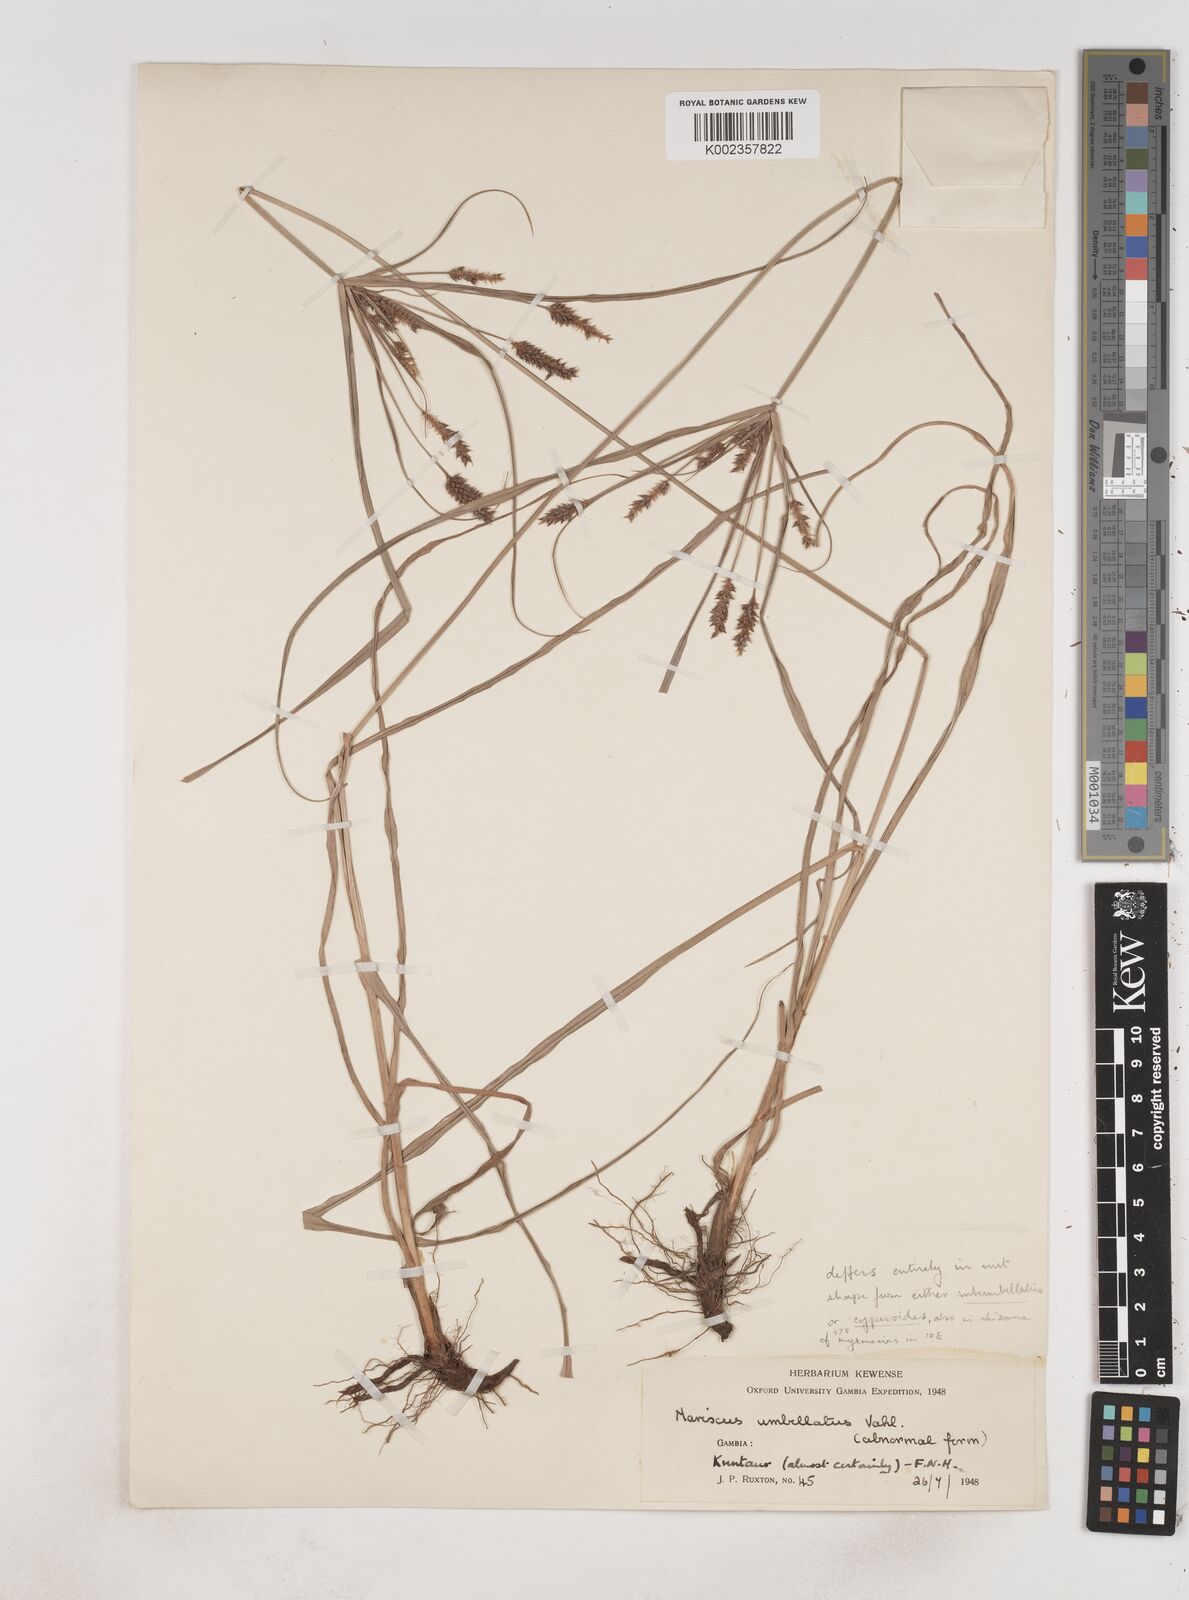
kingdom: Plantae
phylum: Tracheophyta
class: Liliopsida
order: Poales
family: Cyperaceae
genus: Cyperus
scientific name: Cyperus
